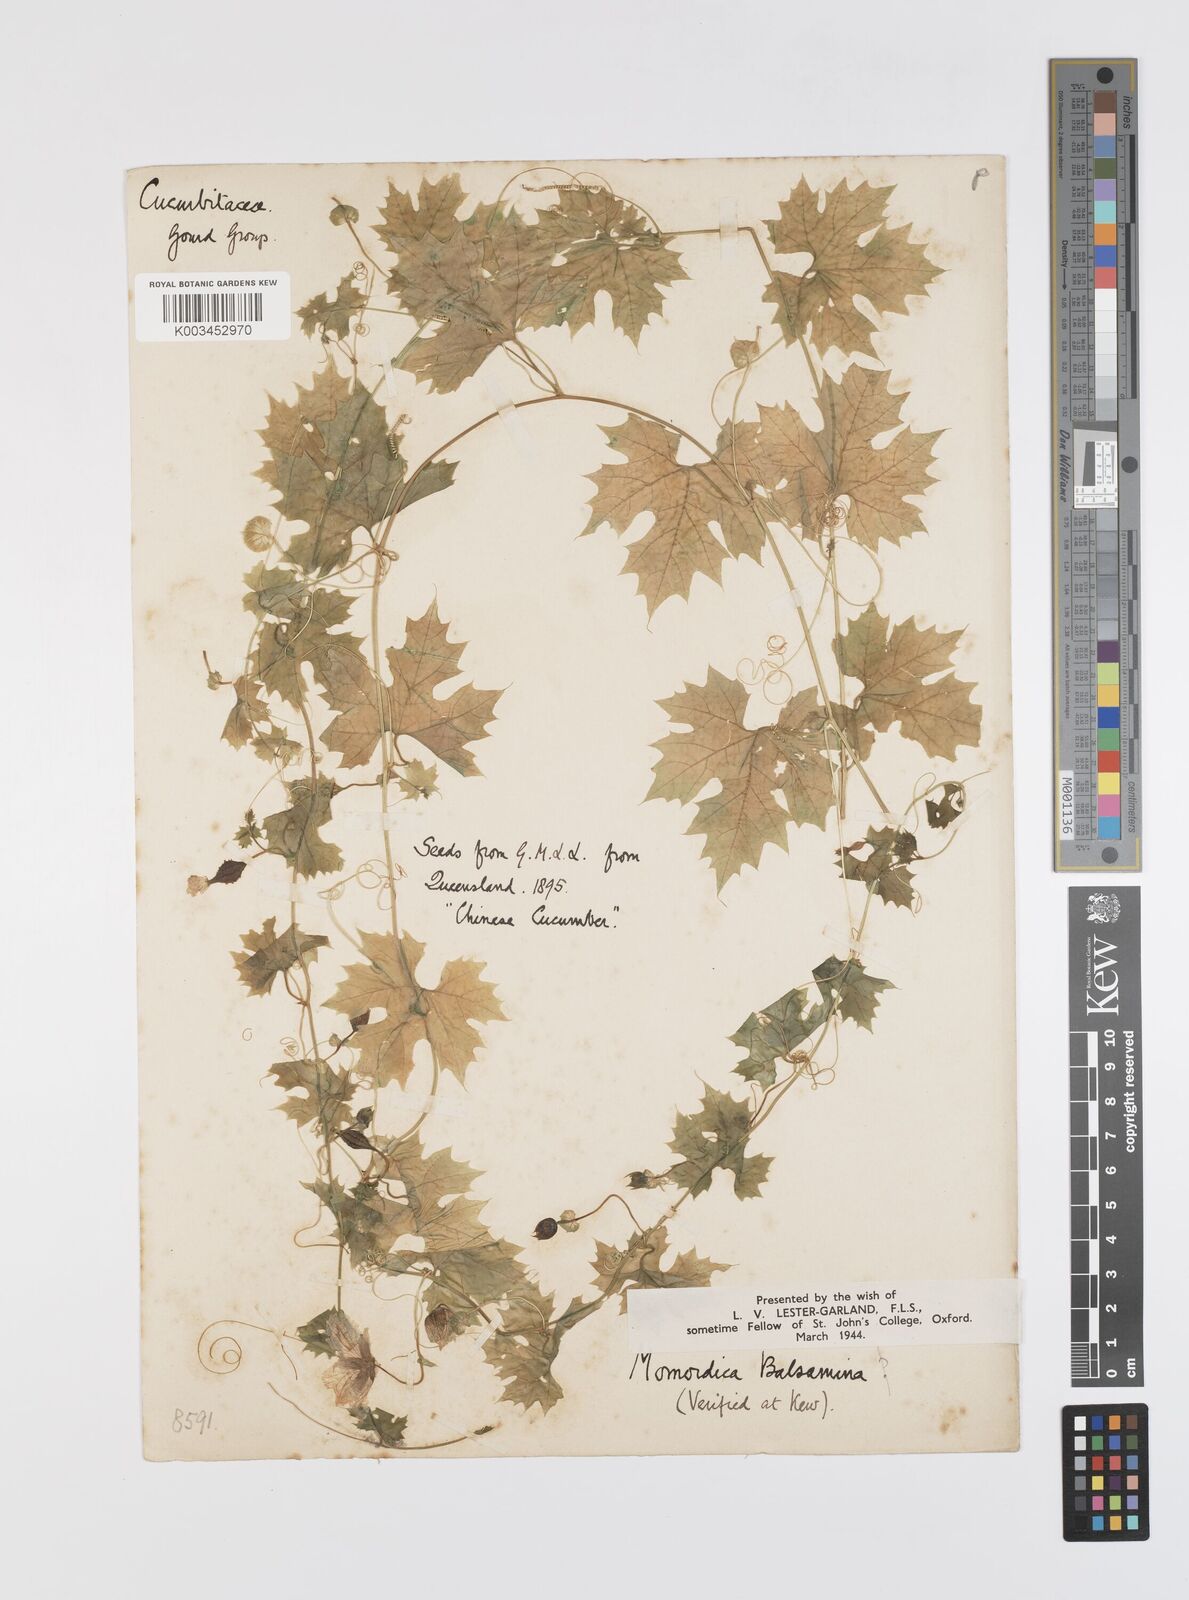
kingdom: Plantae
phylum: Tracheophyta
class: Magnoliopsida
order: Cucurbitales
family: Cucurbitaceae
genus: Momordica
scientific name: Momordica balsamina
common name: Southern balsampear
